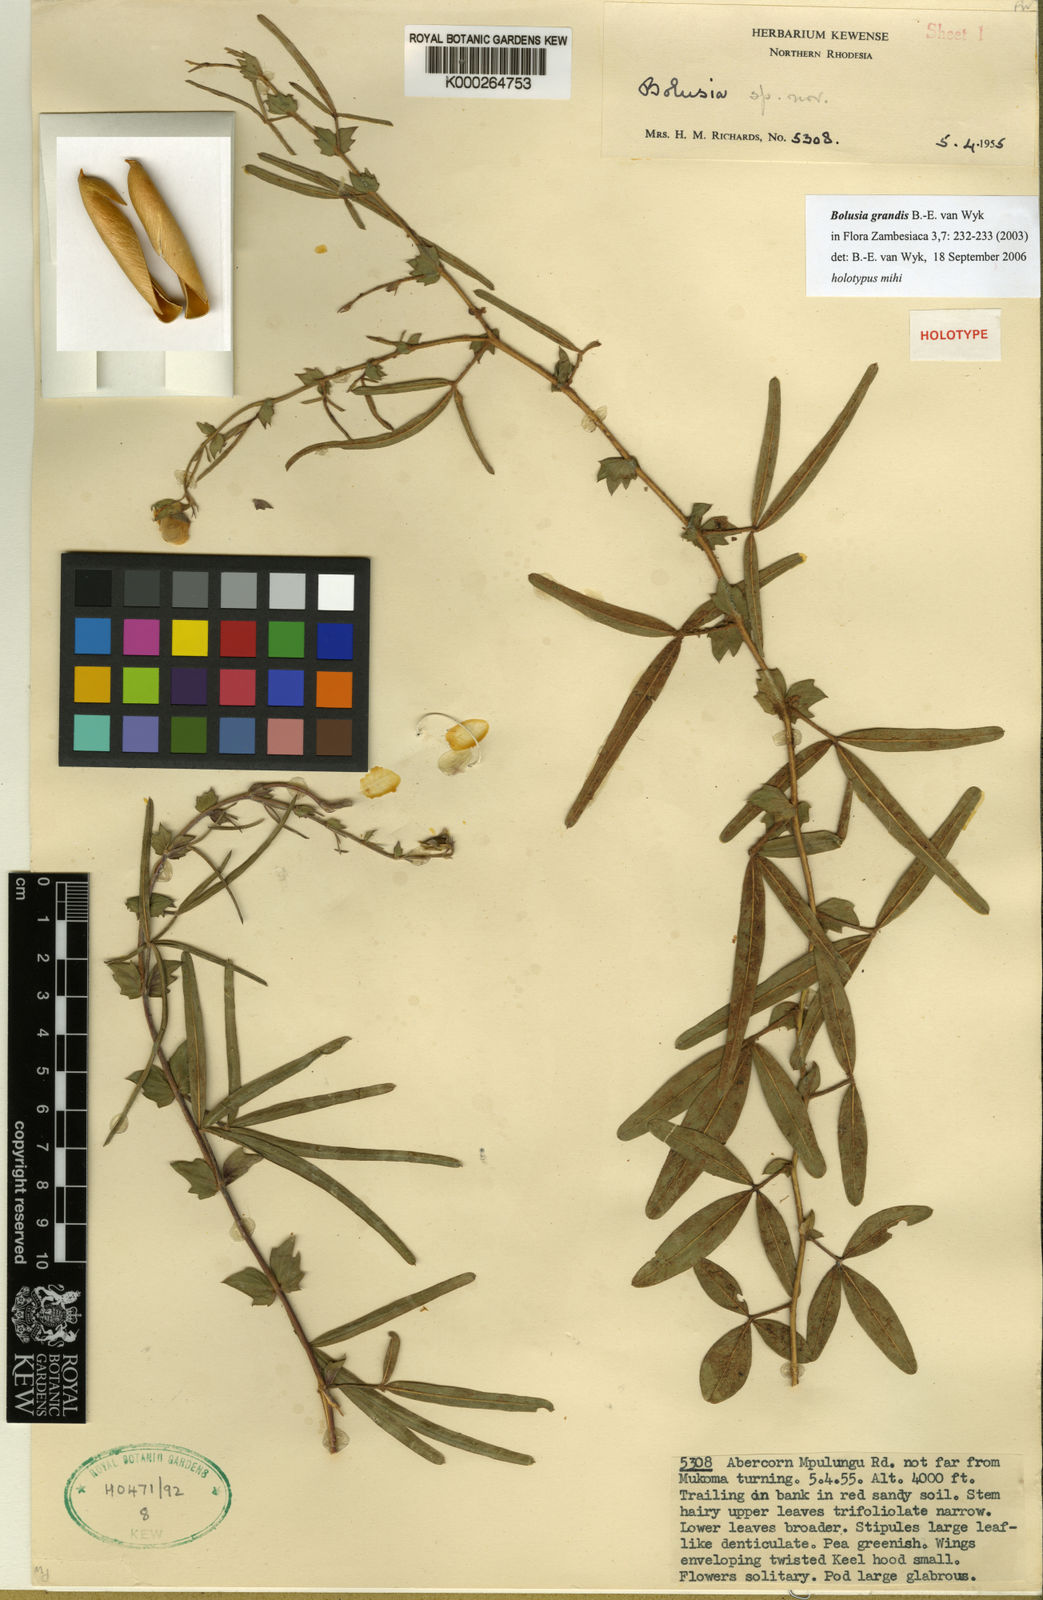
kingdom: Plantae
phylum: Tracheophyta
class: Magnoliopsida
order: Fabales
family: Fabaceae
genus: Bolusia
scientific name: Bolusia
